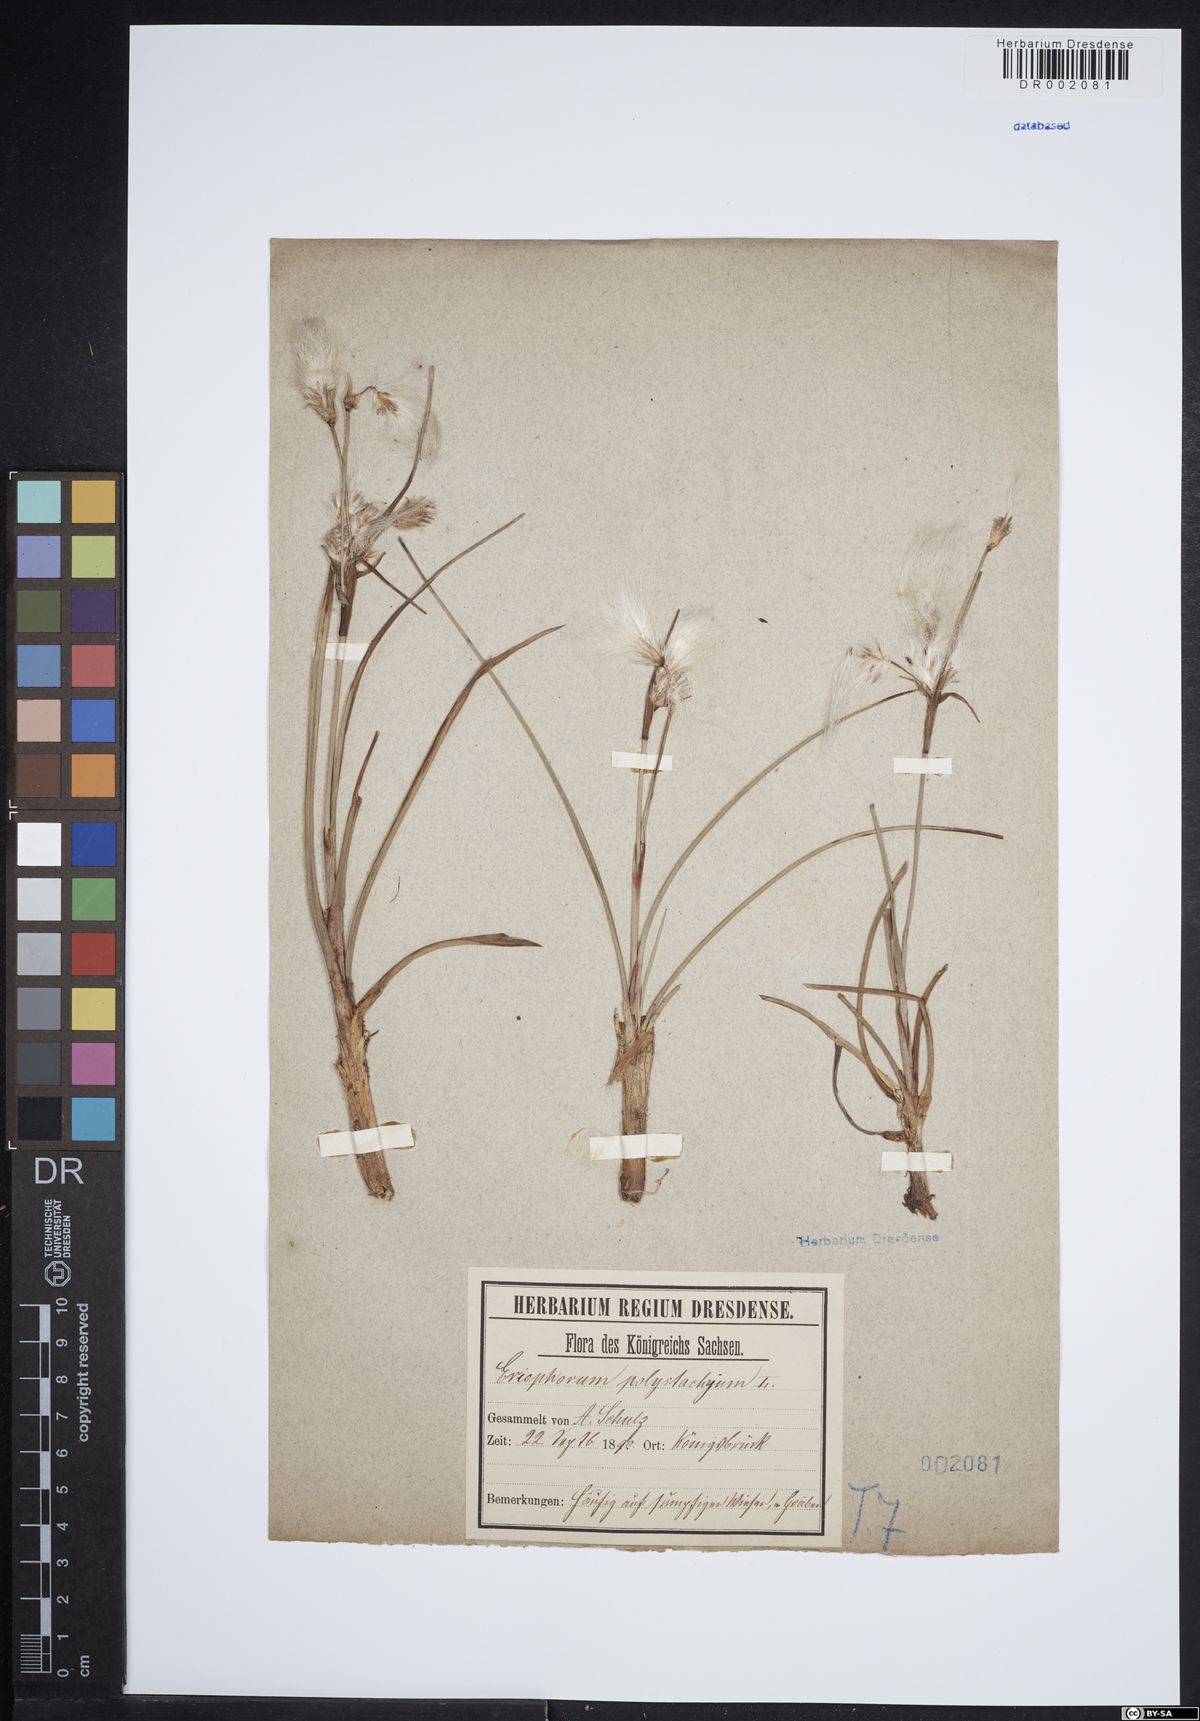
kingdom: Plantae
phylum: Tracheophyta
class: Liliopsida
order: Poales
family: Cyperaceae
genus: Eriophorum
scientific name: Eriophorum angustifolium
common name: Common cottongrass
